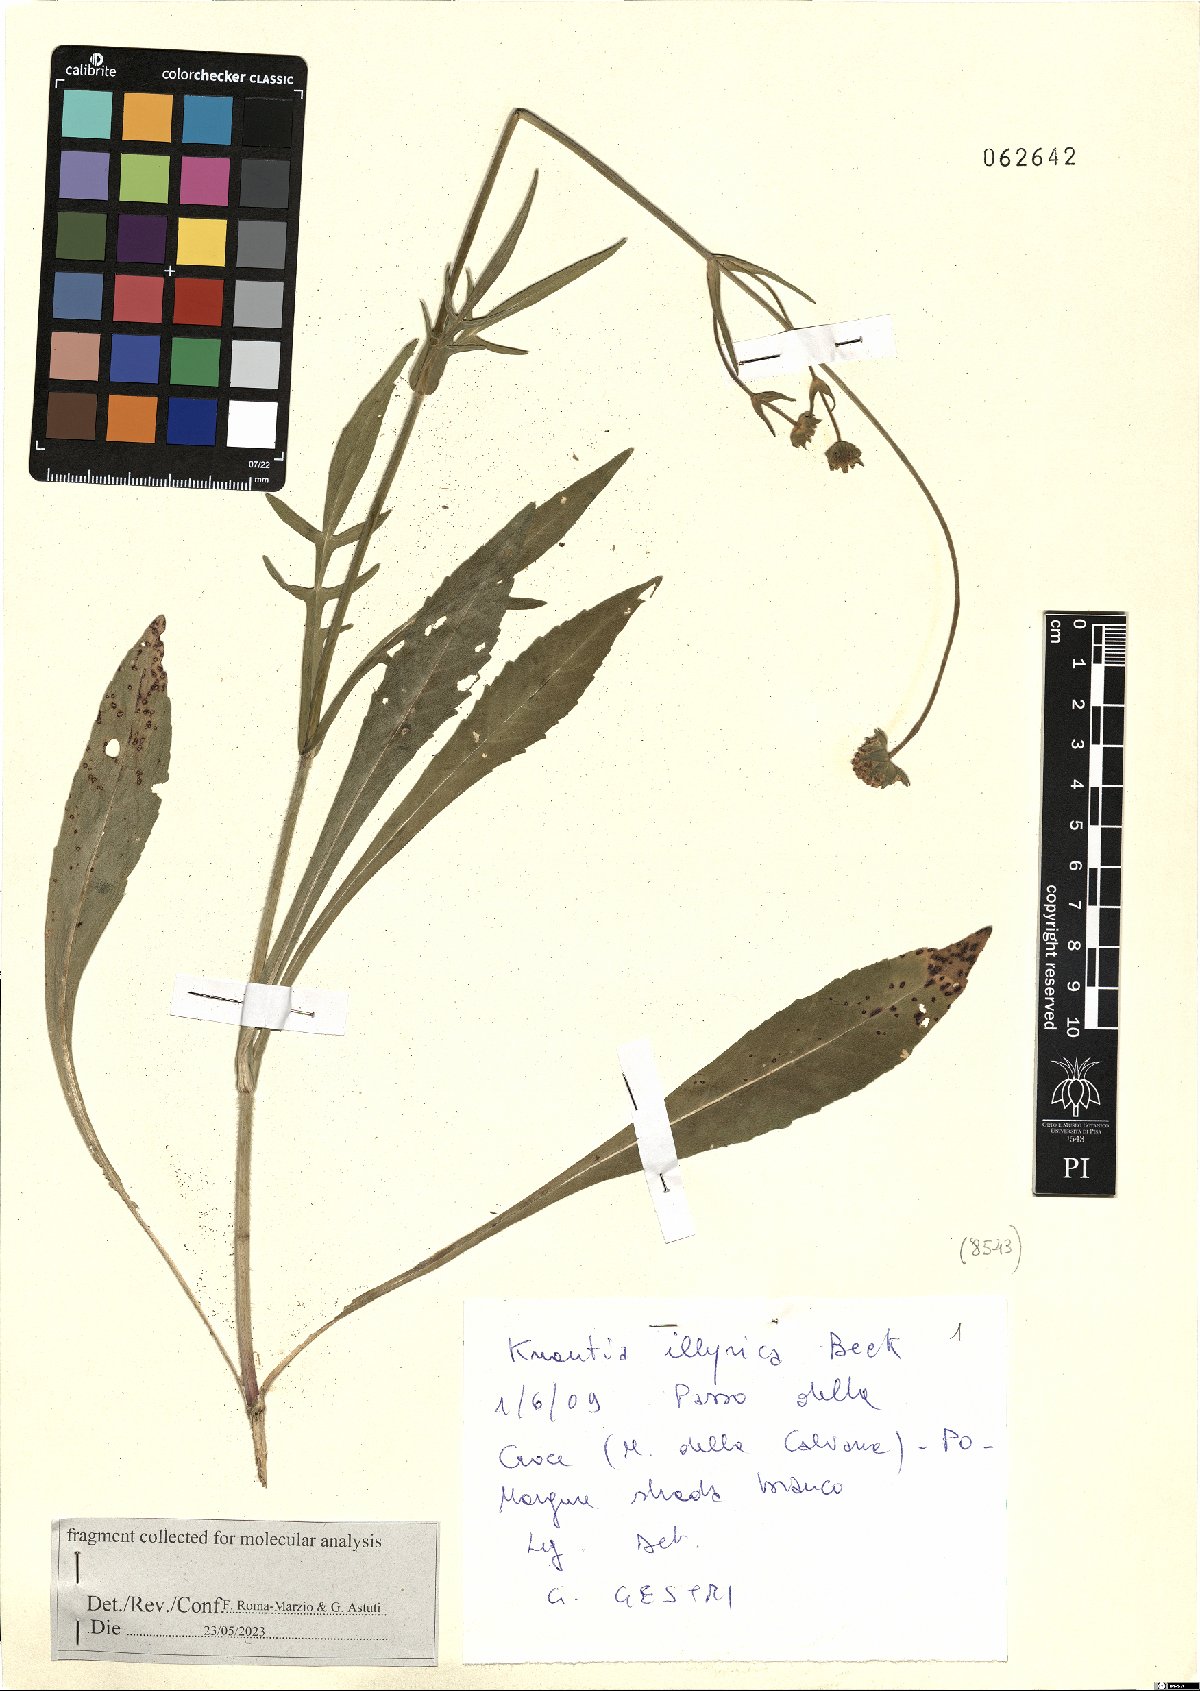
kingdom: Plantae
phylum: Tracheophyta
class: Magnoliopsida
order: Dipsacales
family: Caprifoliaceae
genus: Knautia
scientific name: Knautia illyrica
